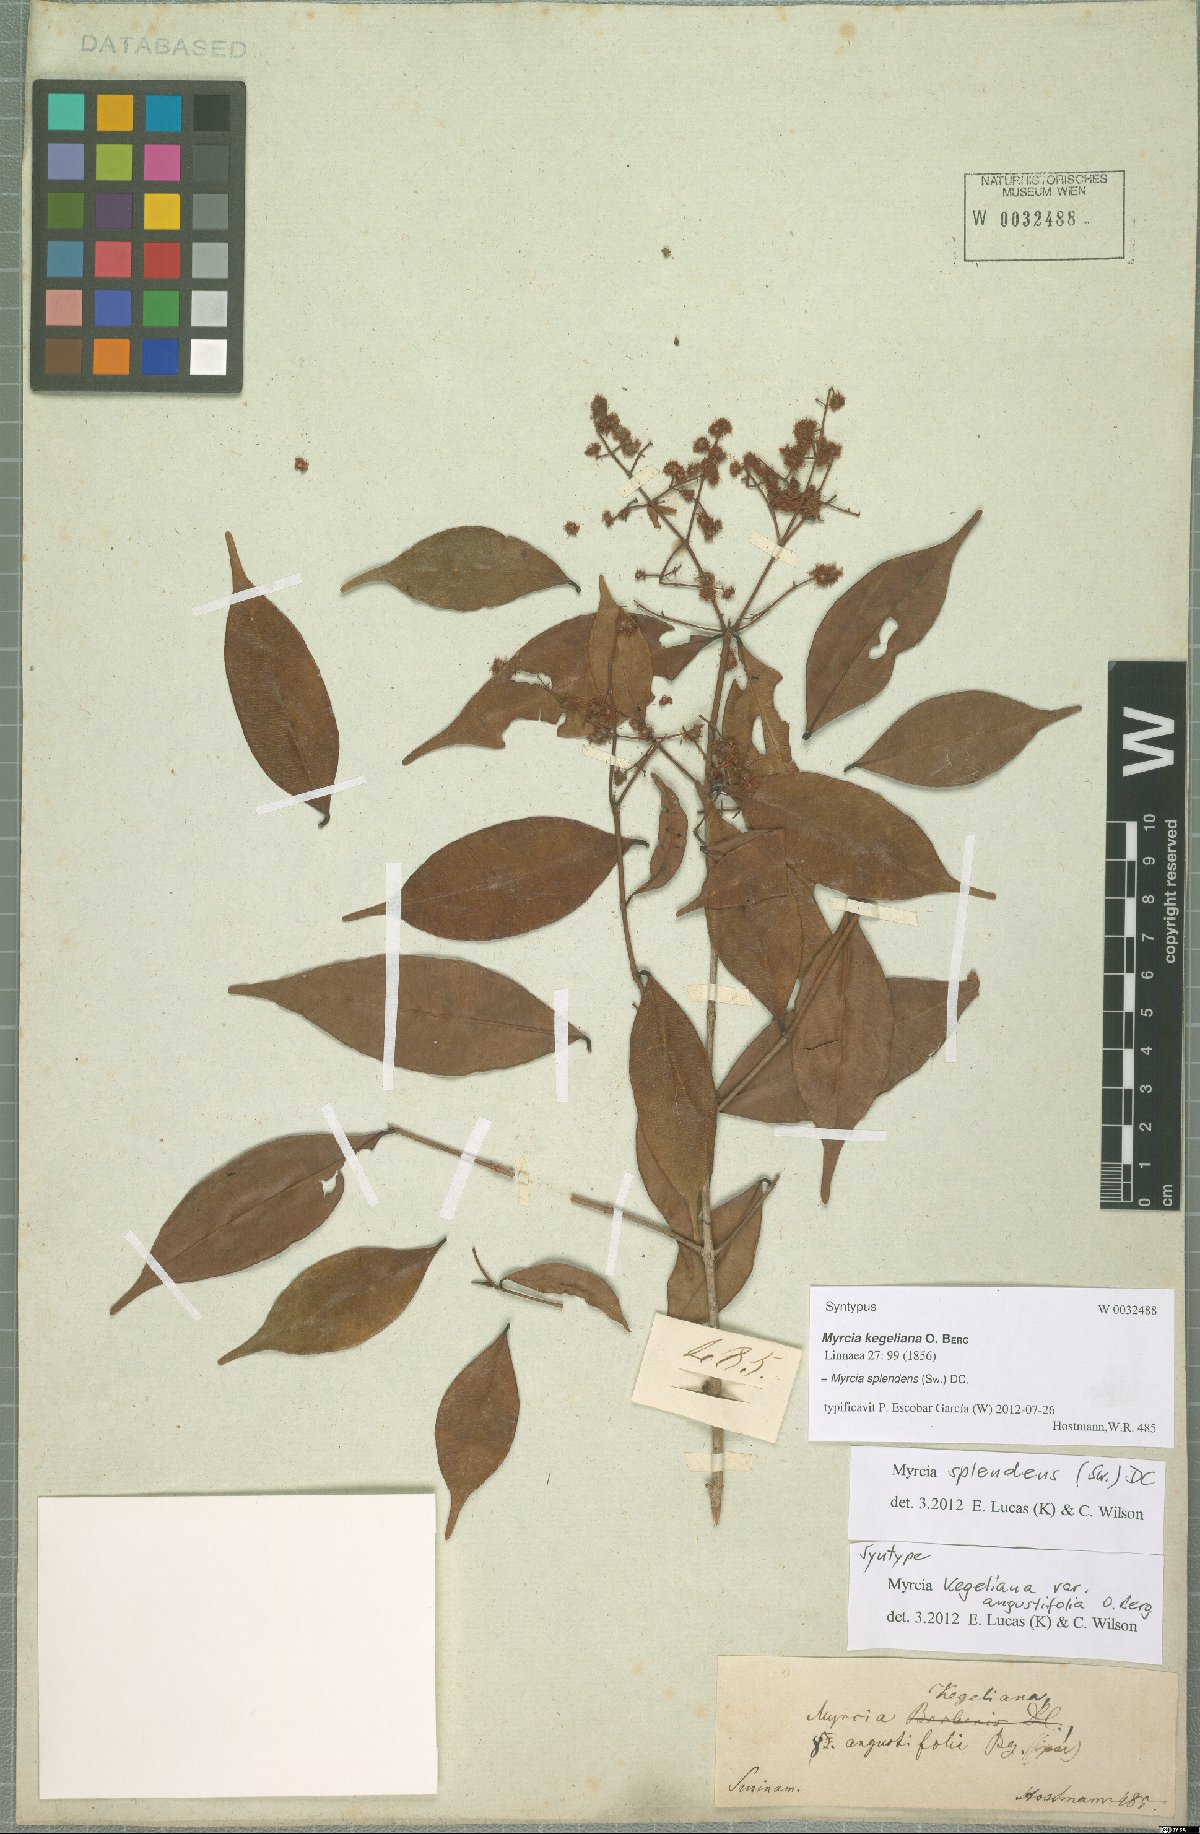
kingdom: Plantae
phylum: Tracheophyta
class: Magnoliopsida
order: Myrtales
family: Myrtaceae
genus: Myrcia
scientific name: Myrcia splendens
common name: Surinam cherry
